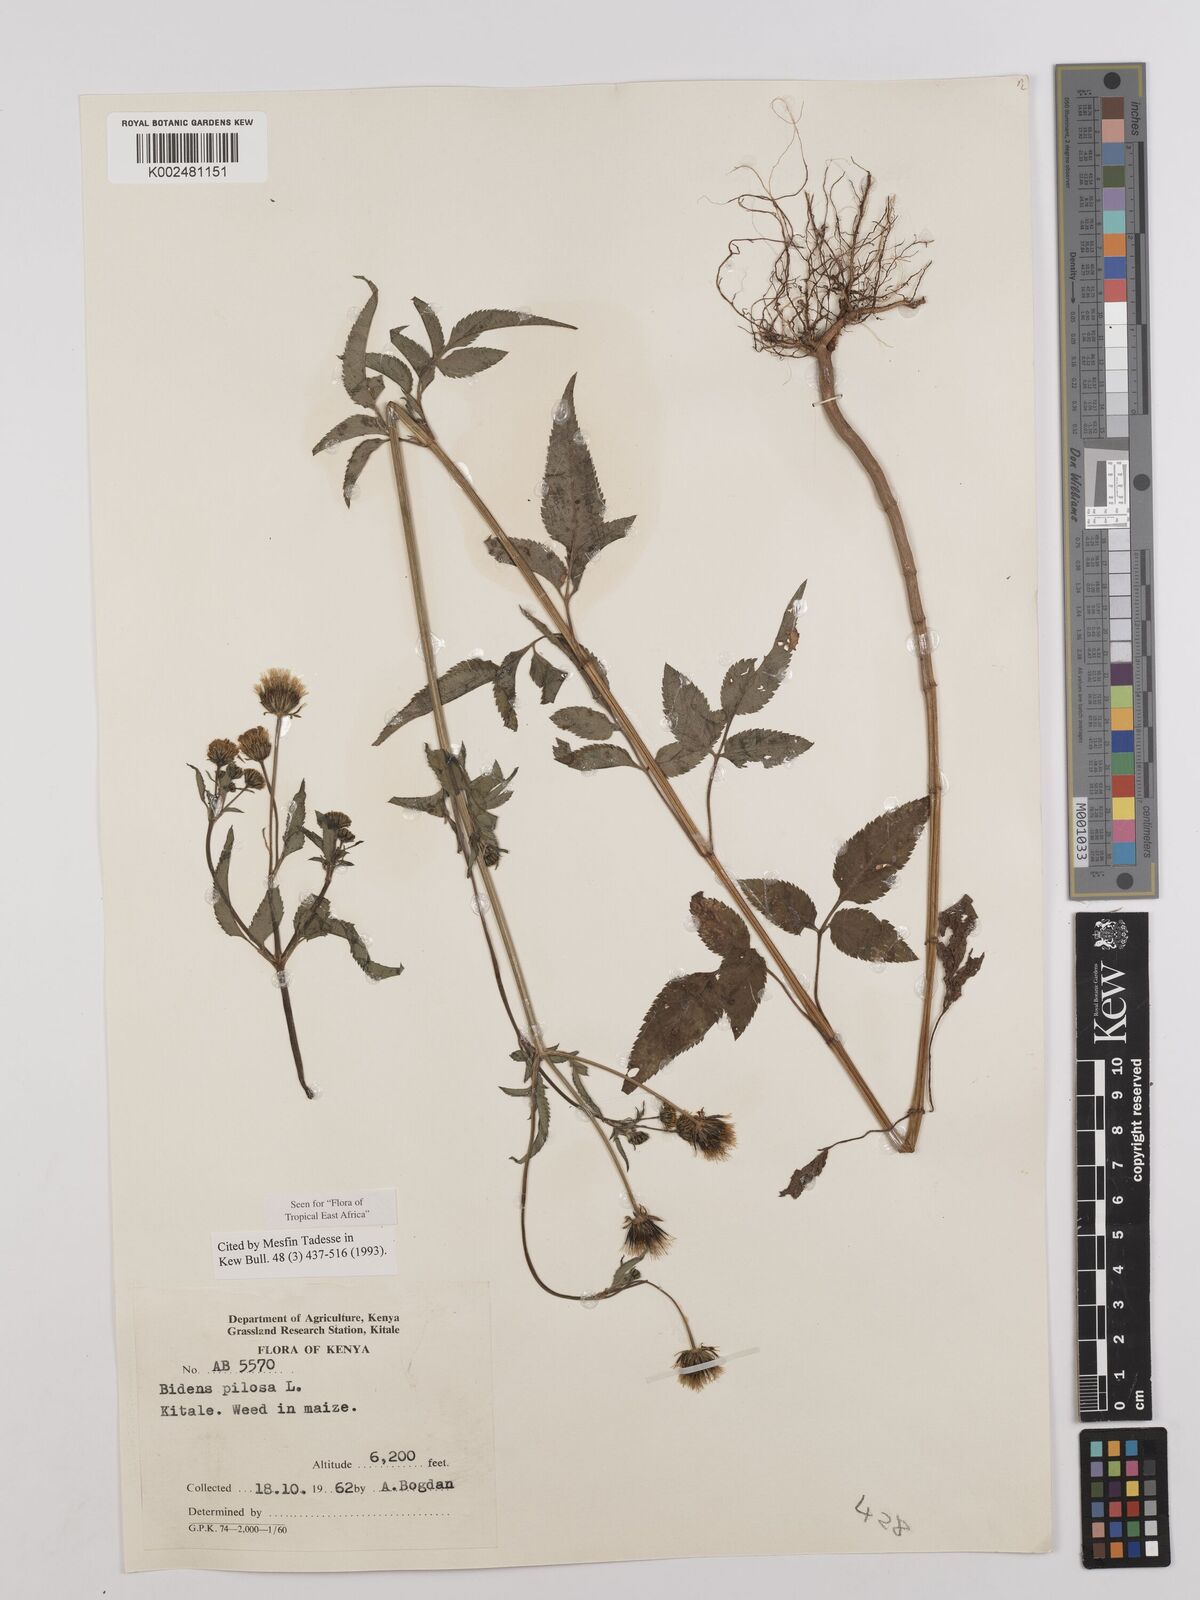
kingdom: Plantae
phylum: Tracheophyta
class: Magnoliopsida
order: Asterales
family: Asteraceae
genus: Bidens
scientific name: Bidens pilosa
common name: Black-jack
